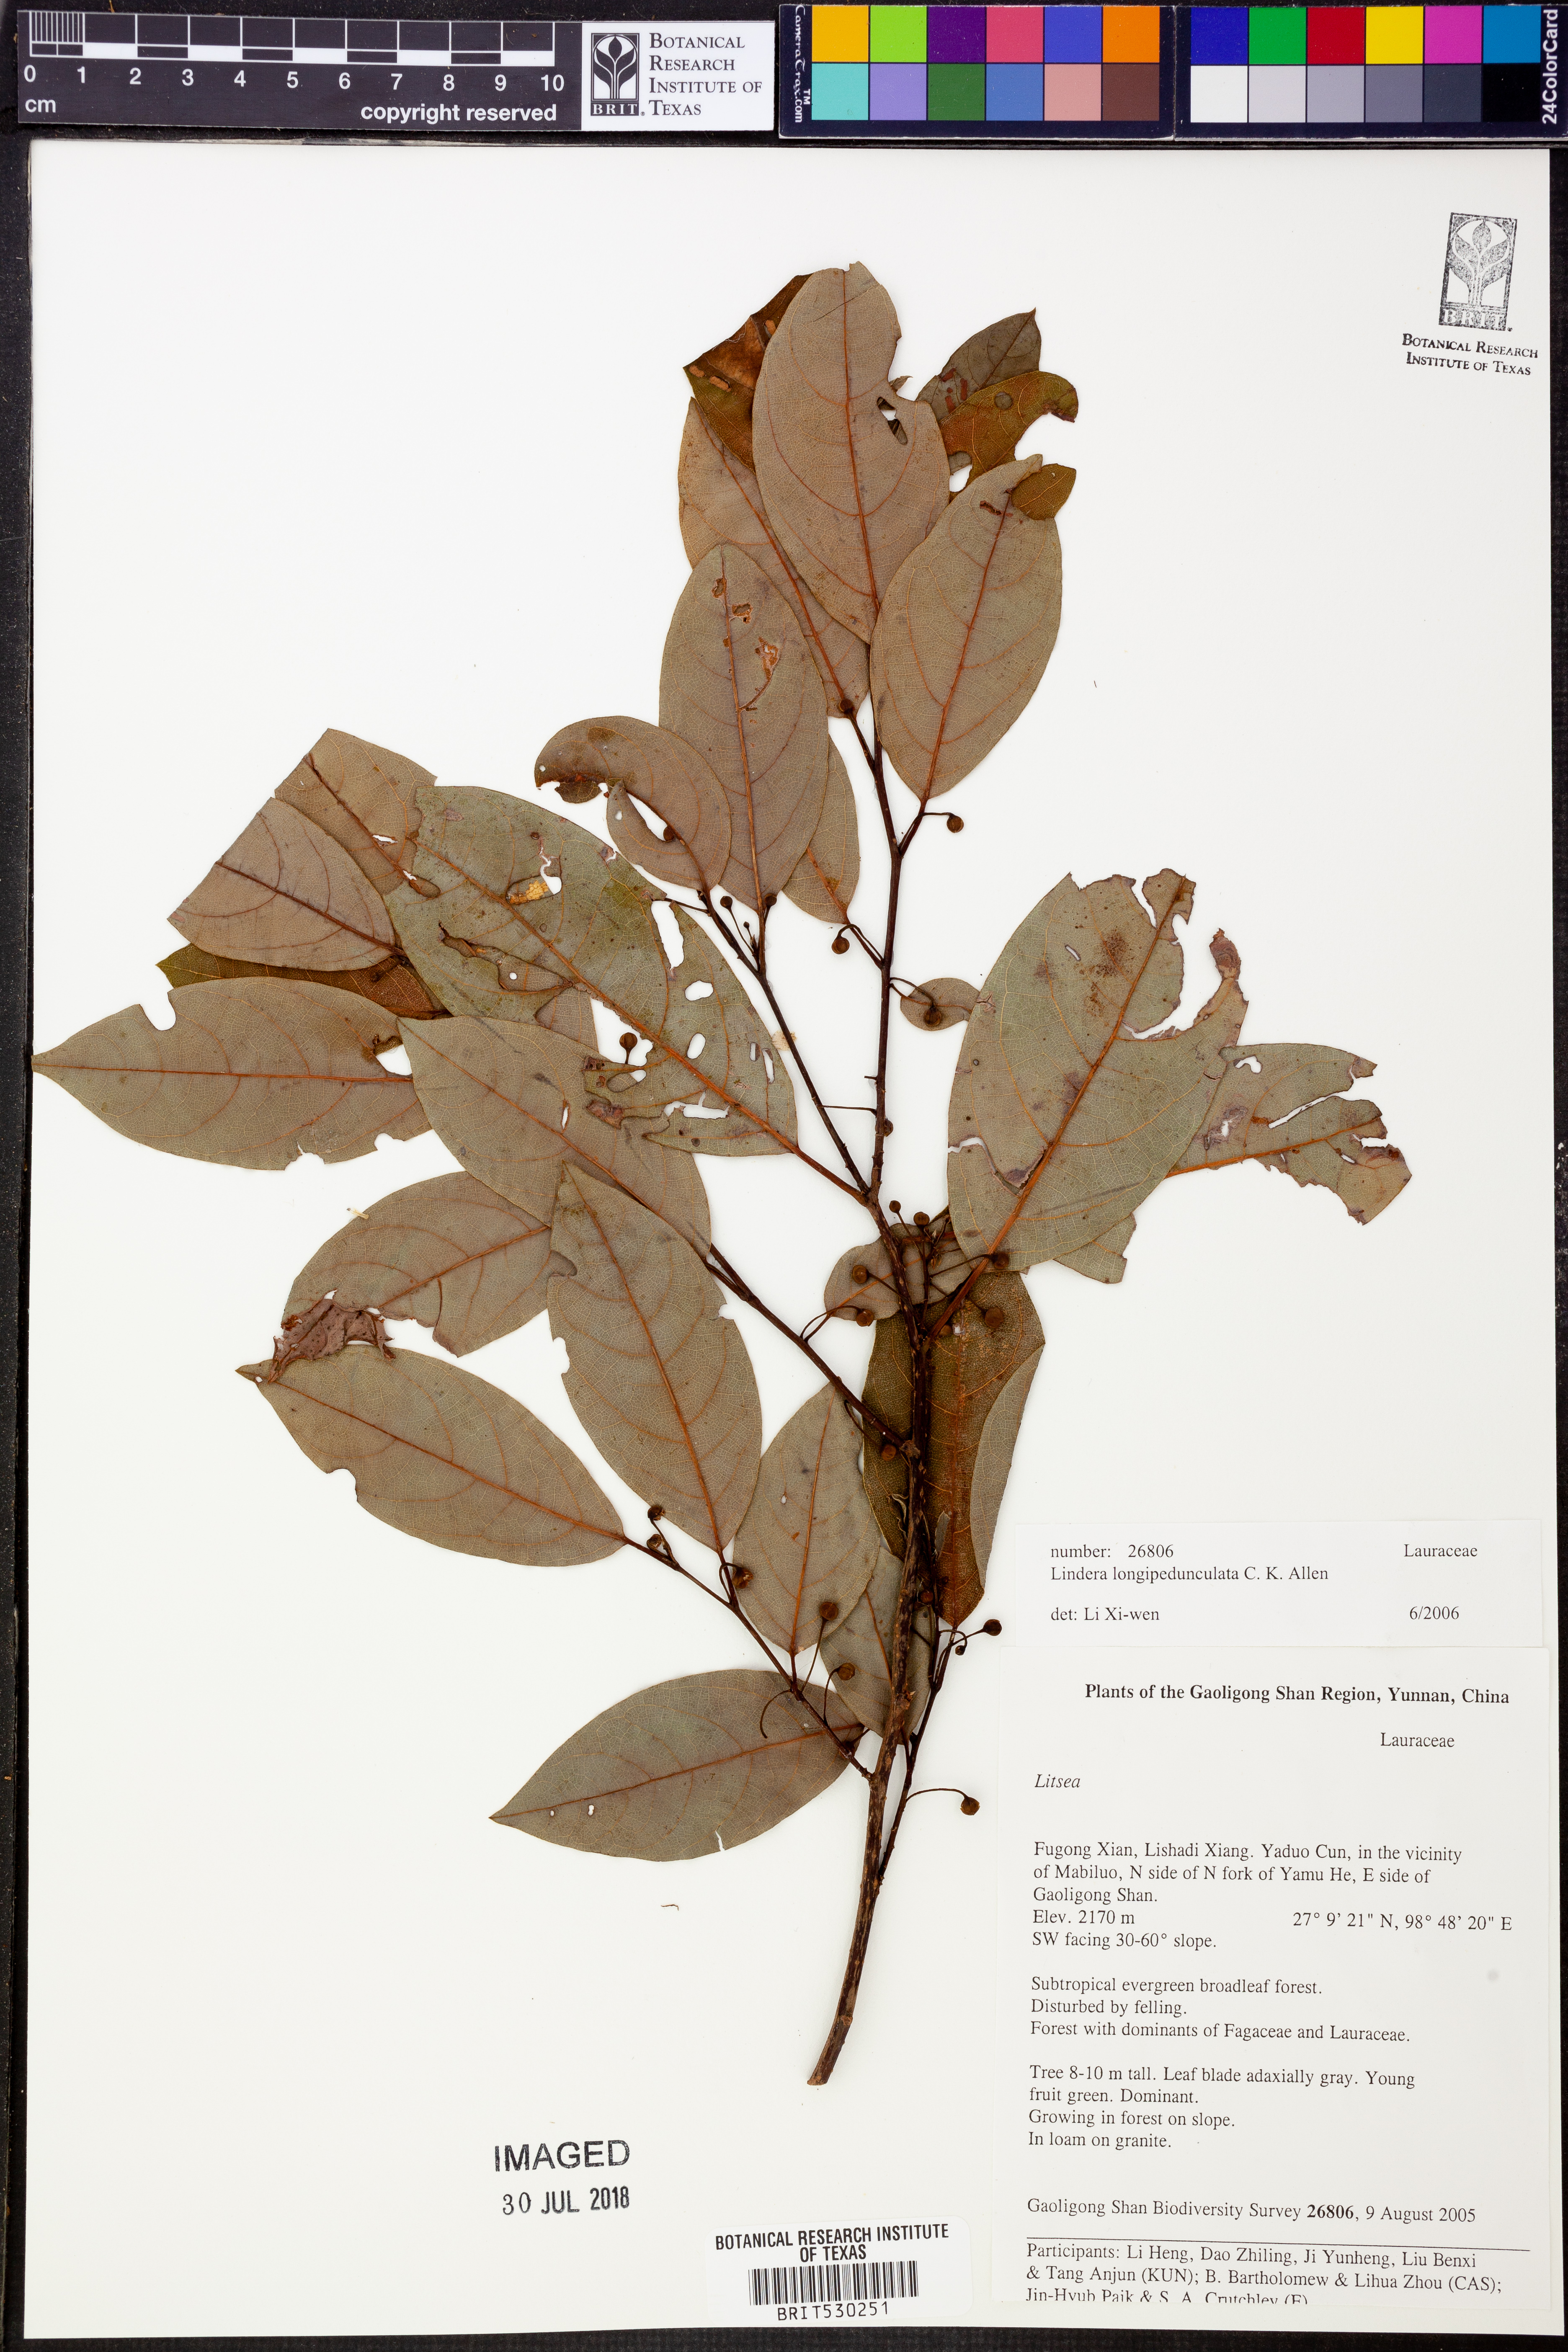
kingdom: Plantae
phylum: Tracheophyta
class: Magnoliopsida
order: Laurales
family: Lauraceae
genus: Lindera
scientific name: Lindera longipedunculata
